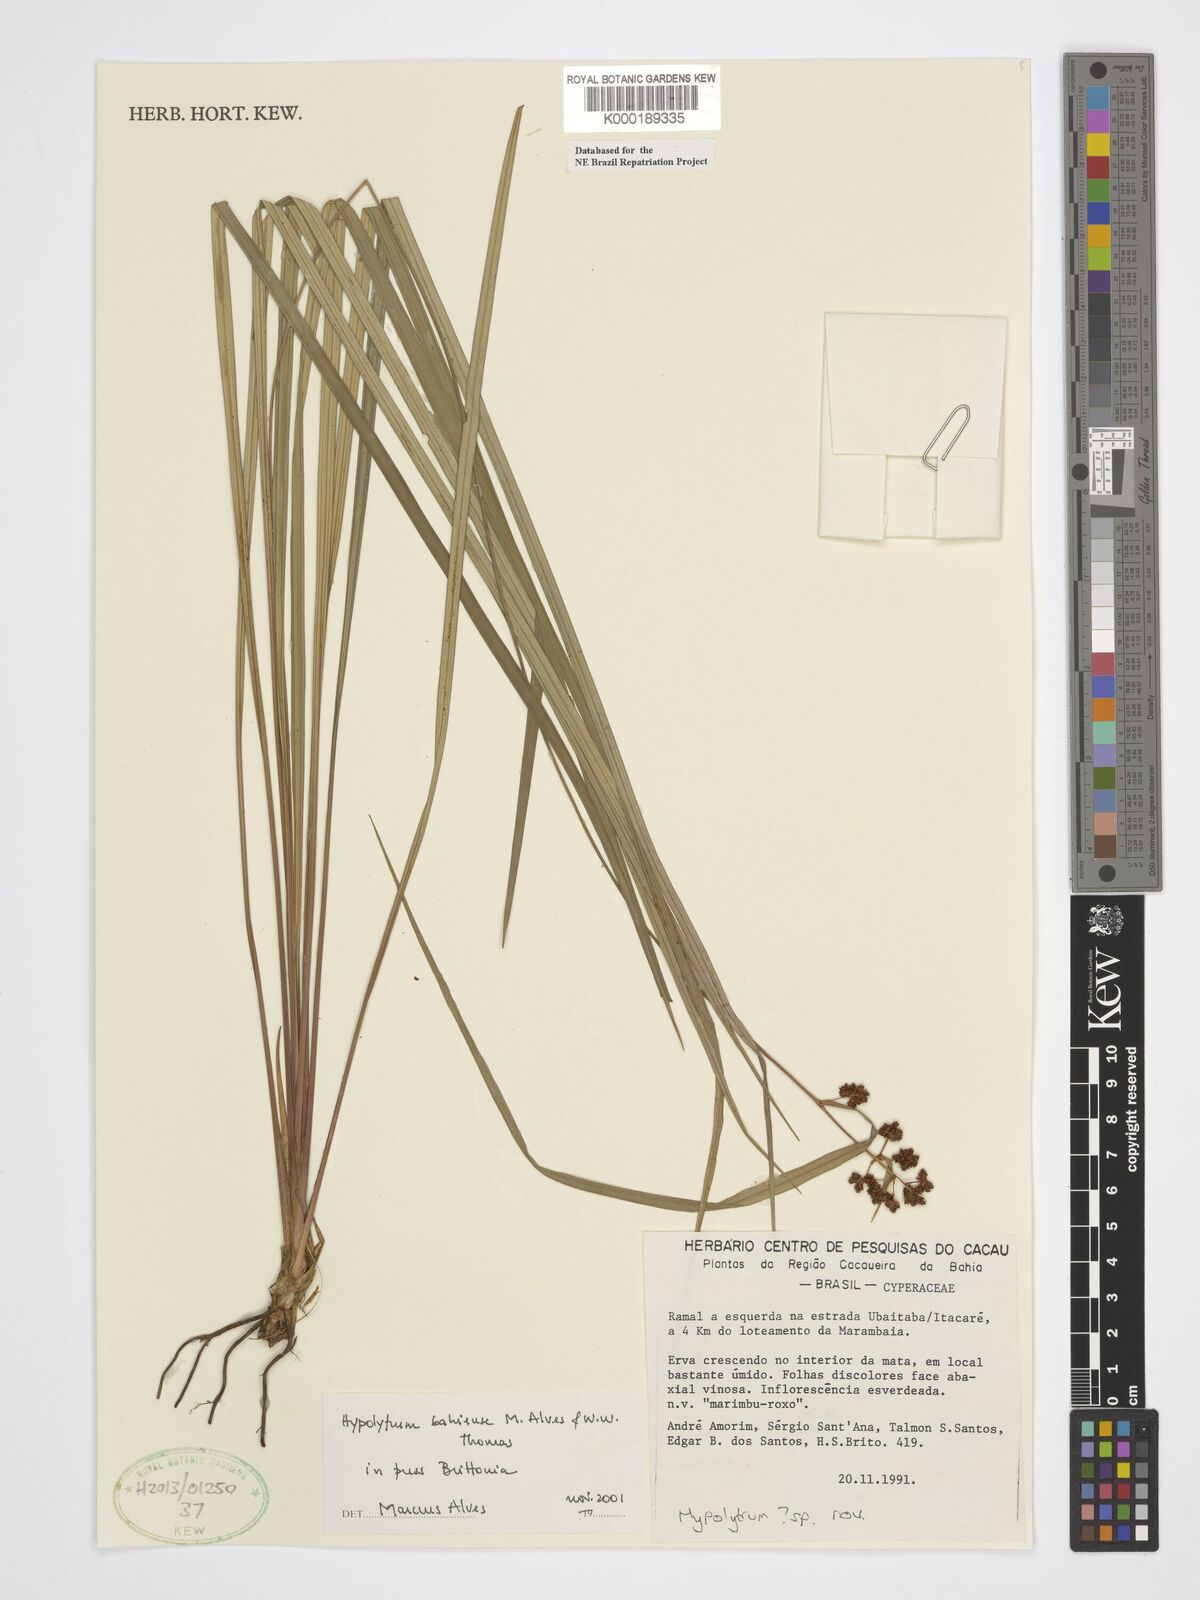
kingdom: Plantae
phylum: Tracheophyta
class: Liliopsida
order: Poales
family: Cyperaceae
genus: Hypolytrum
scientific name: Hypolytrum bahiense
